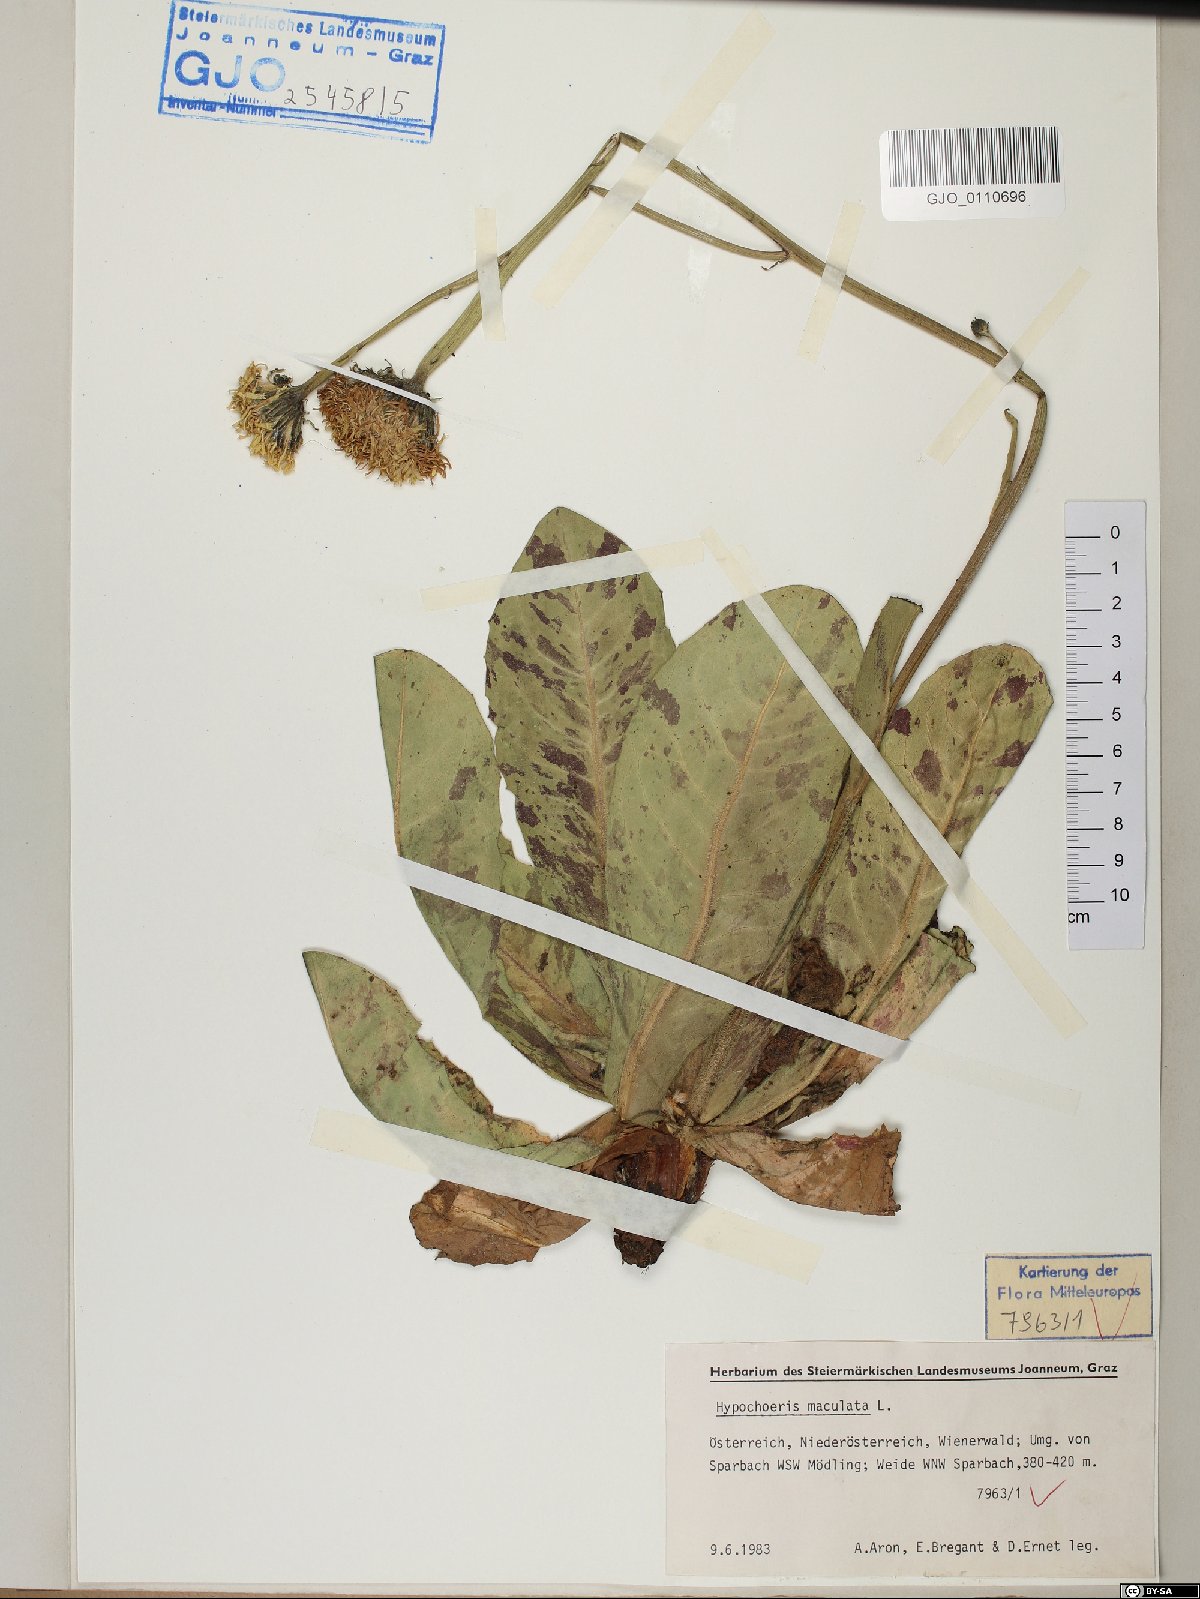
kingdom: Plantae
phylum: Tracheophyta
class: Magnoliopsida
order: Asterales
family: Asteraceae
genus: Trommsdorffia
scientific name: Trommsdorffia maculata
